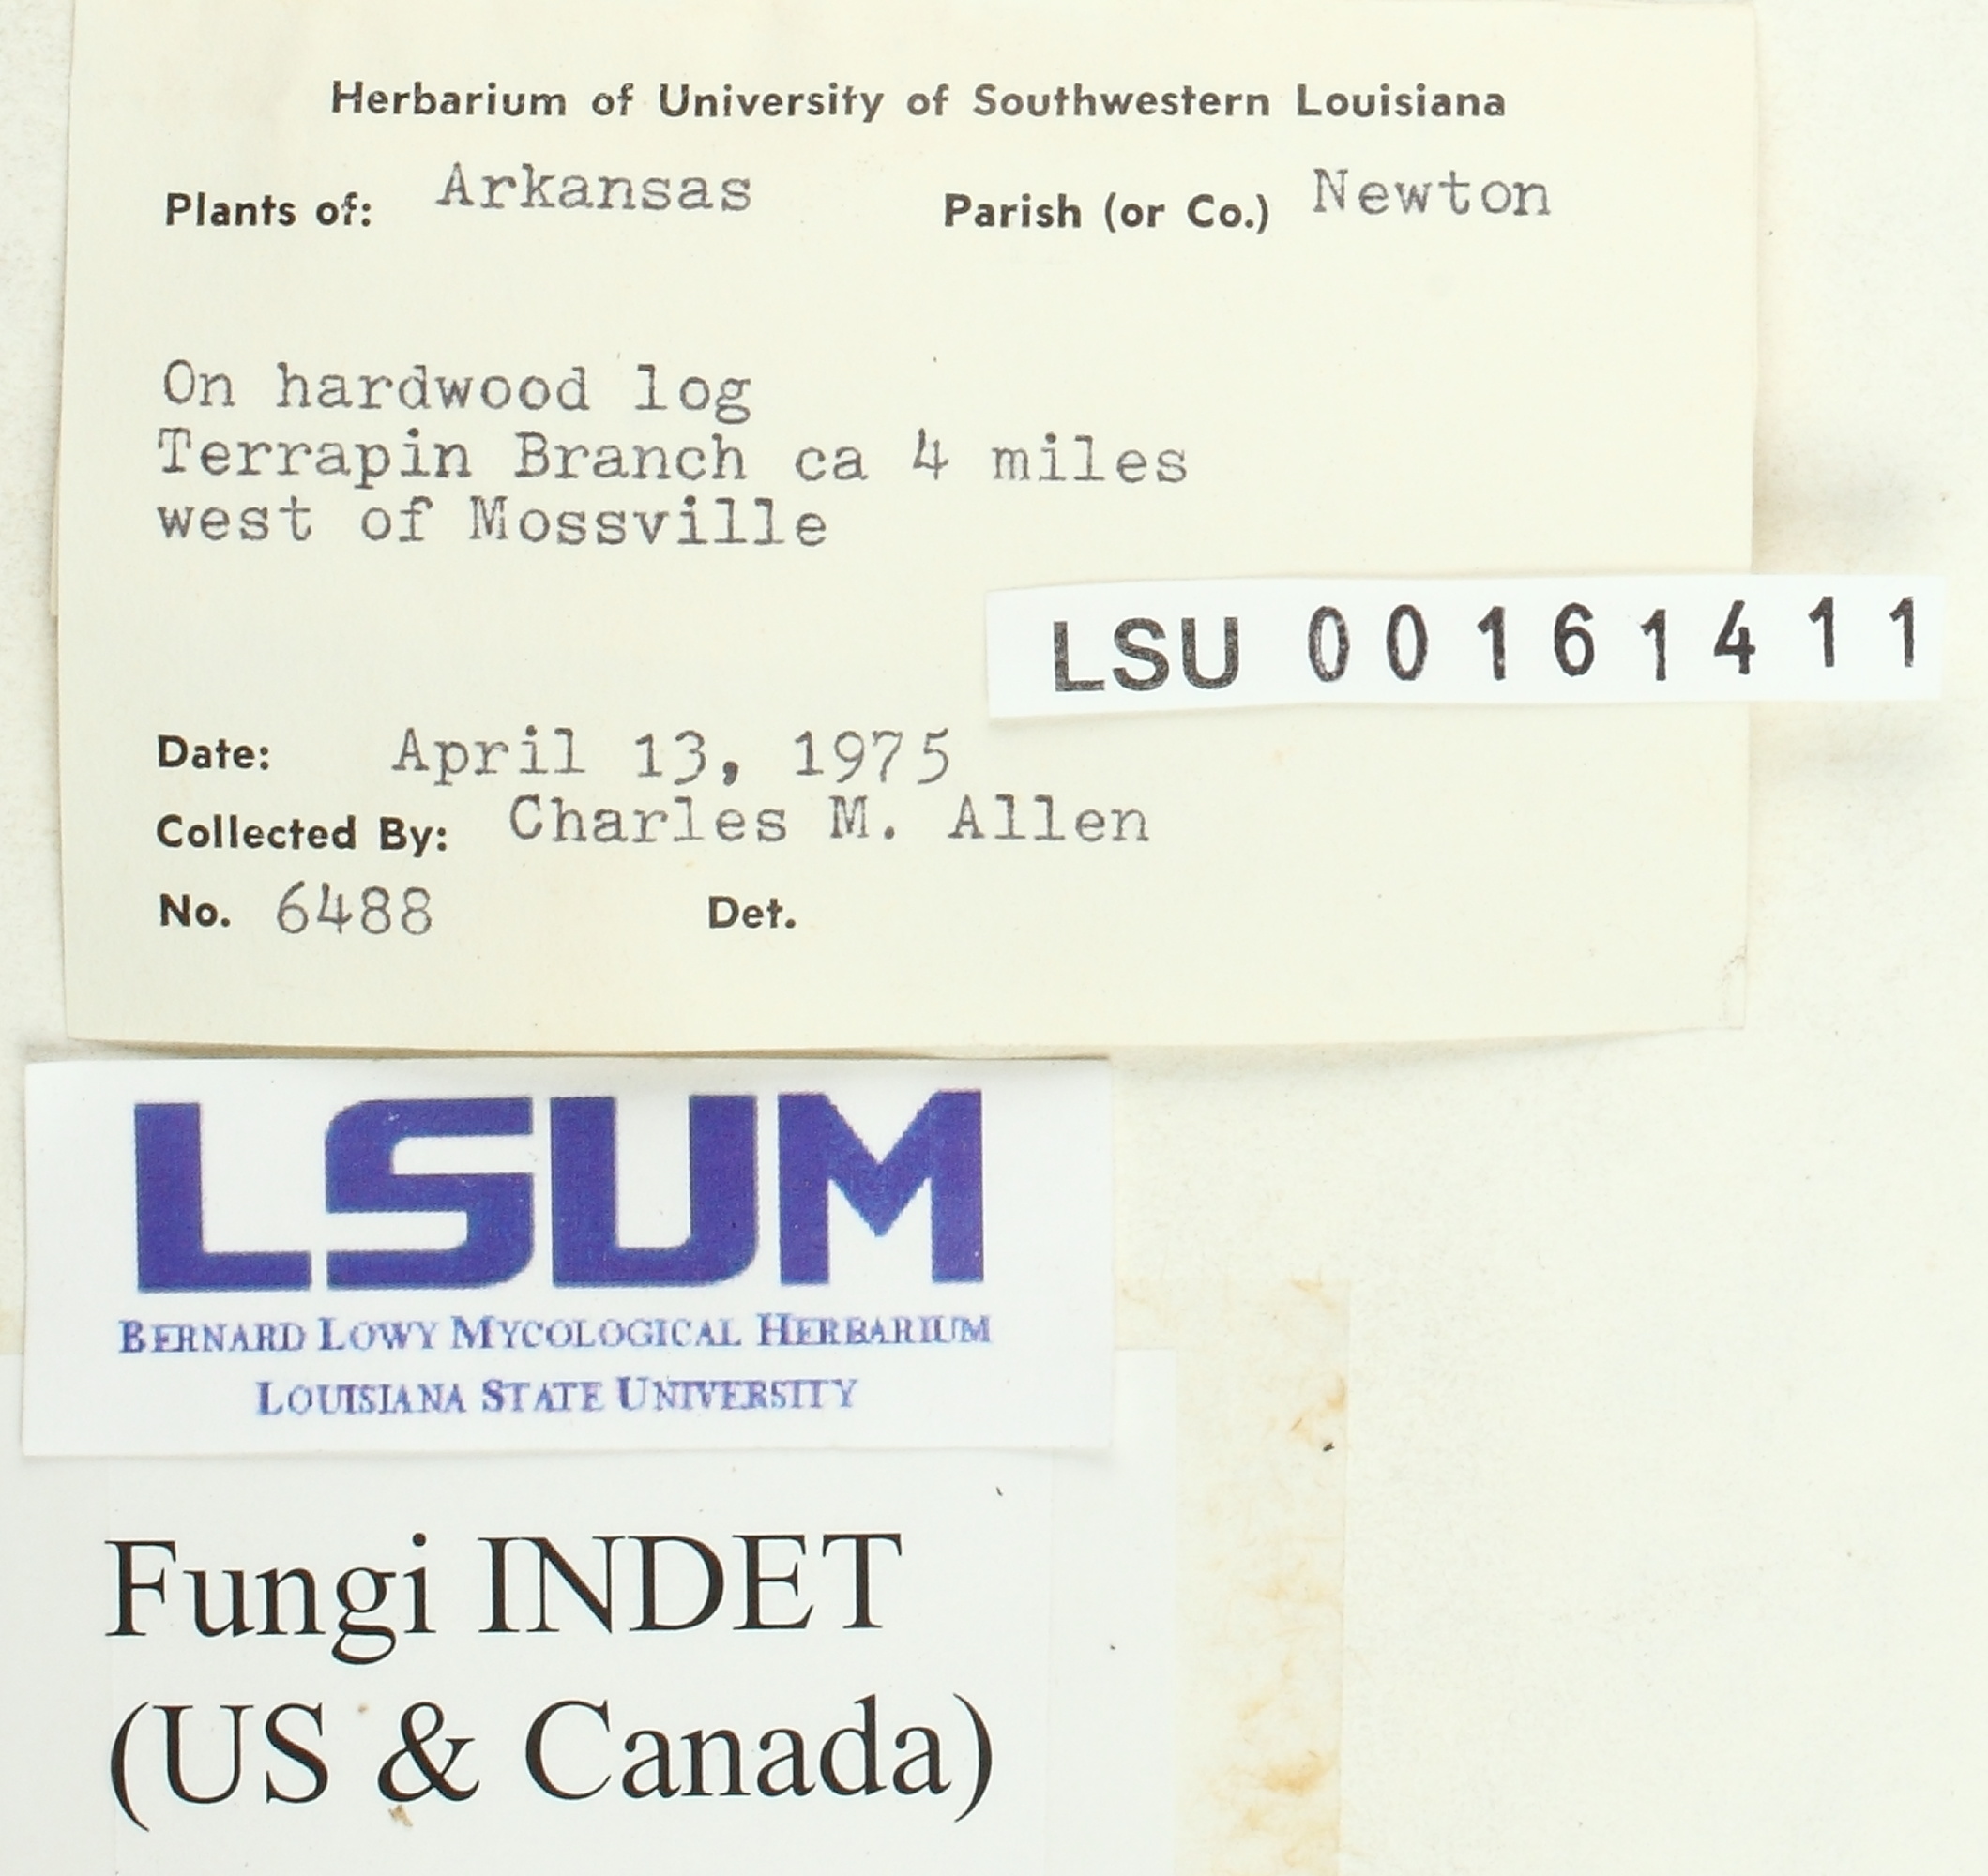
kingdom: Fungi
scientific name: Fungi
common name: Fungi
